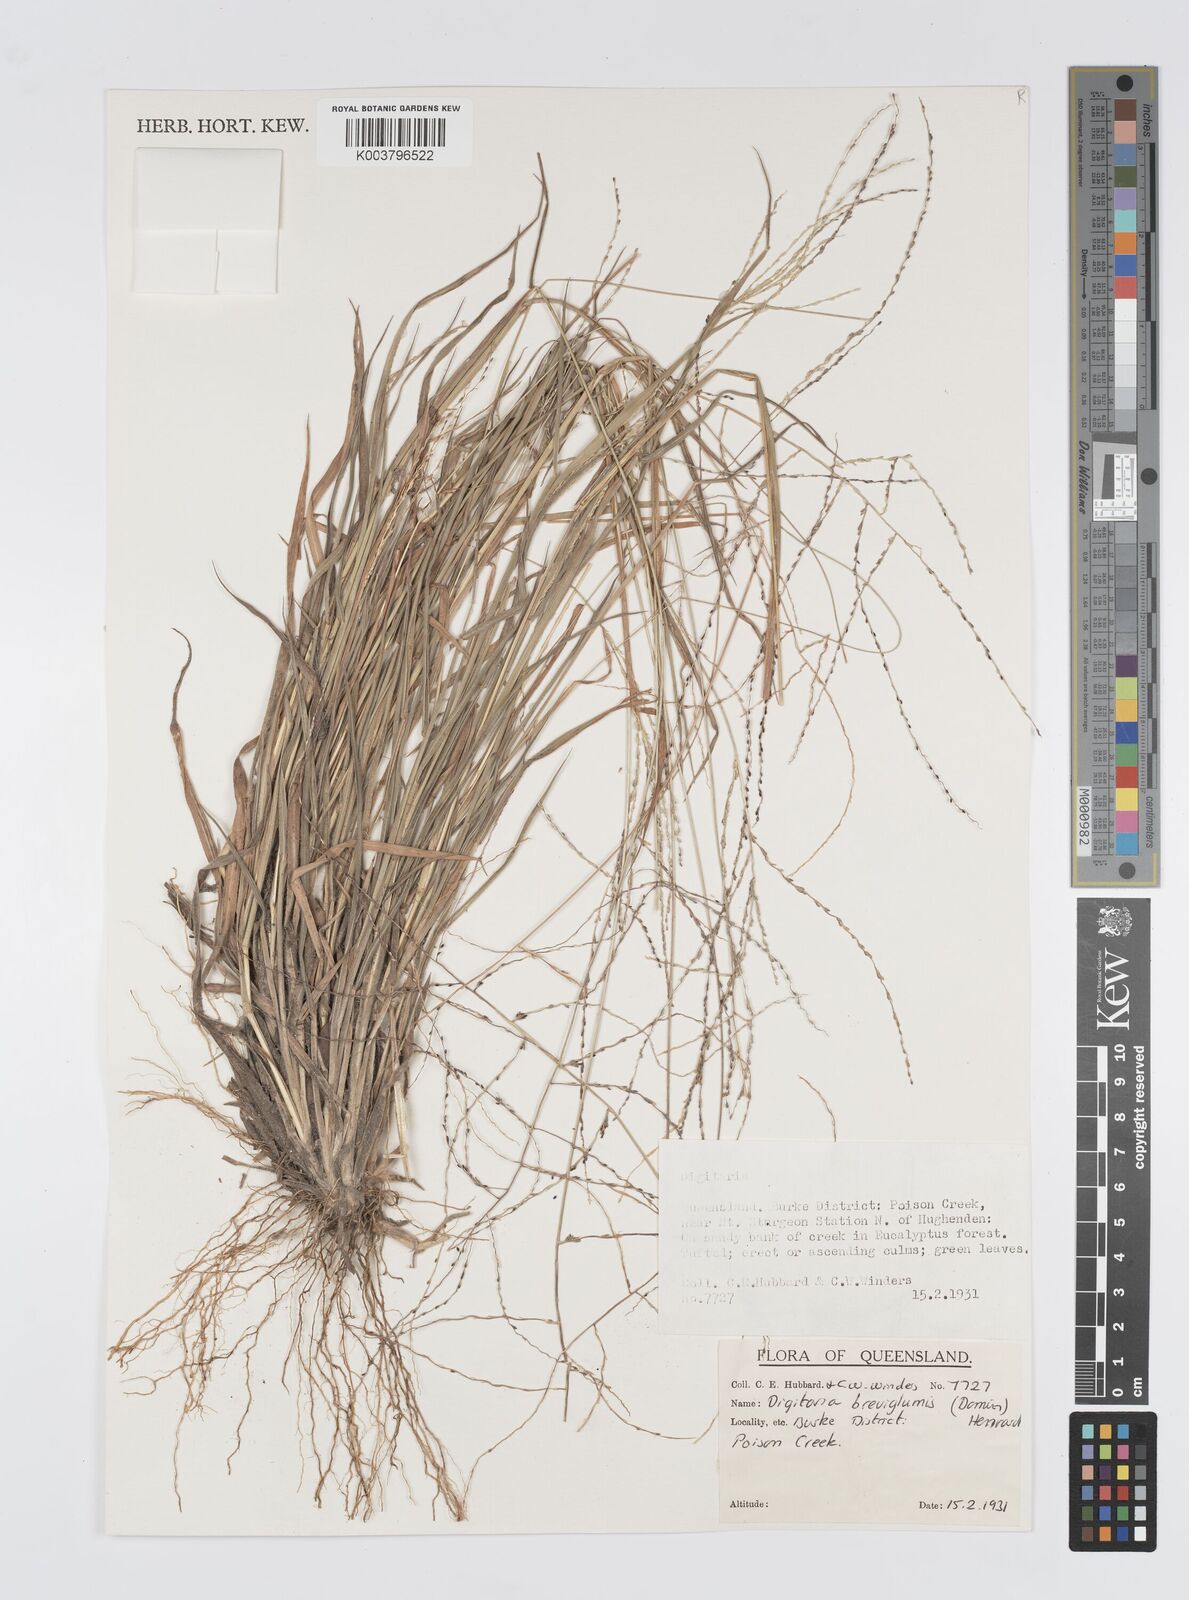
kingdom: Plantae
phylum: Tracheophyta
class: Liliopsida
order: Poales
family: Poaceae
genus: Digitaria
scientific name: Digitaria breviglumis
